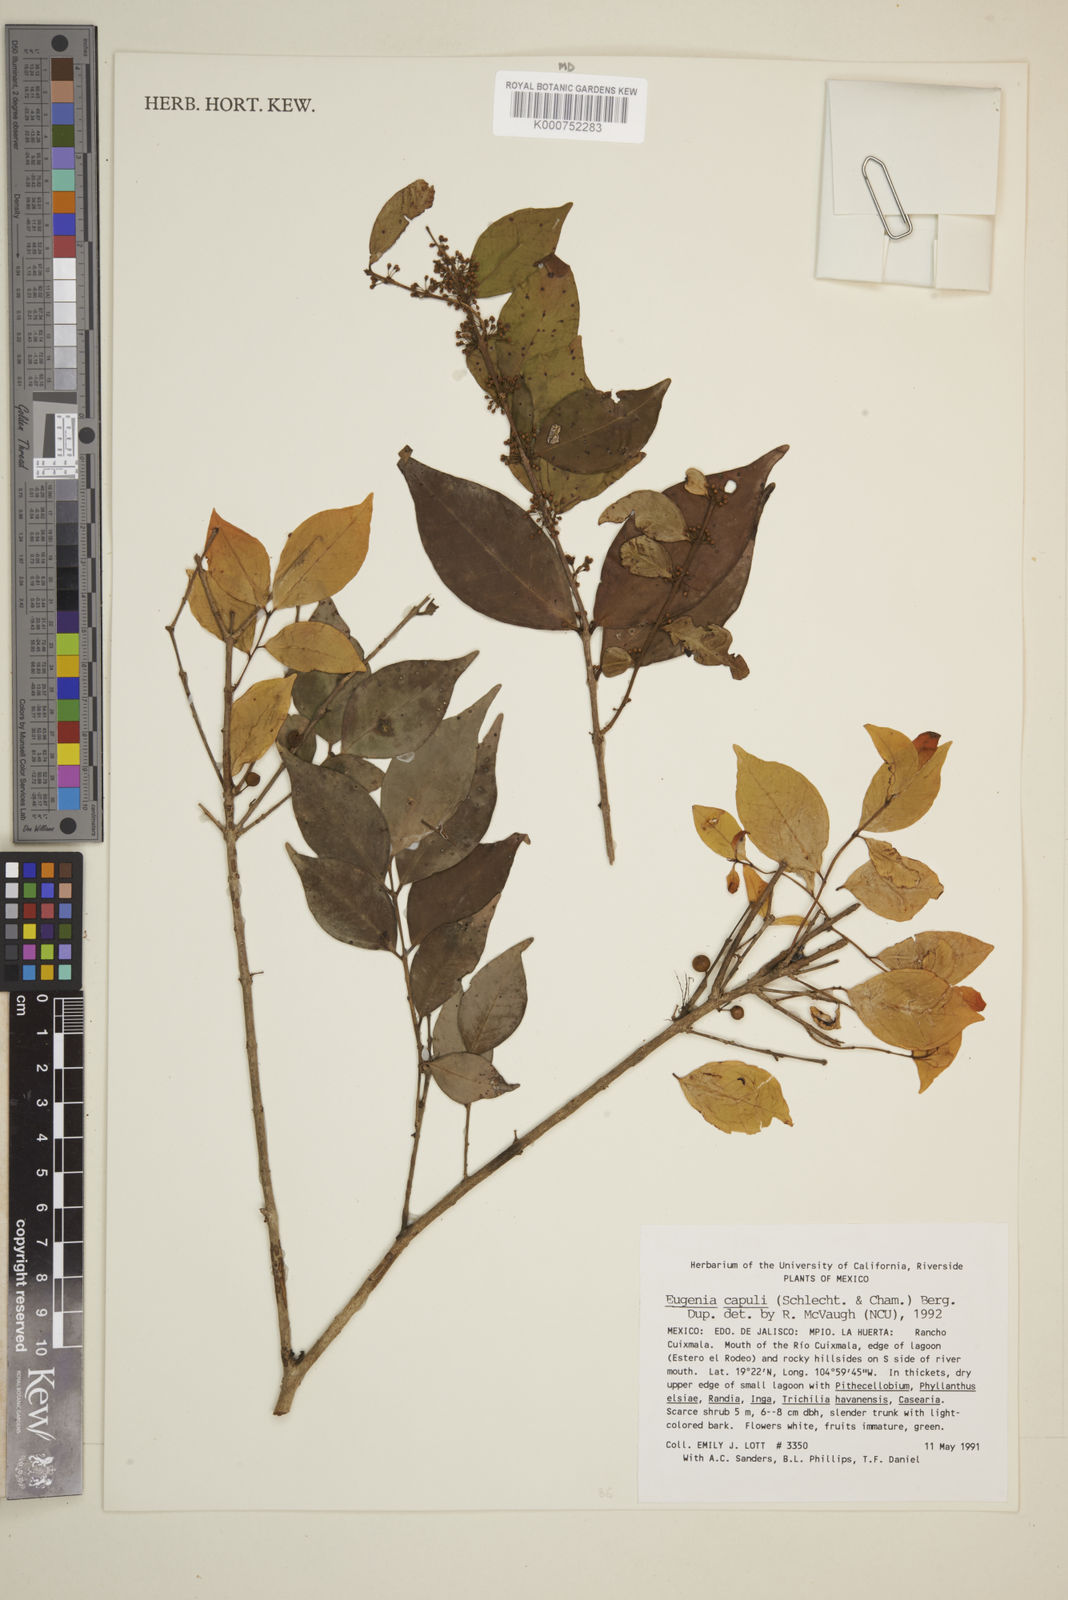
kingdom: Plantae
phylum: Tracheophyta
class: Magnoliopsida
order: Myrtales
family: Myrtaceae
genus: Eugenia
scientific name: Eugenia capuli
